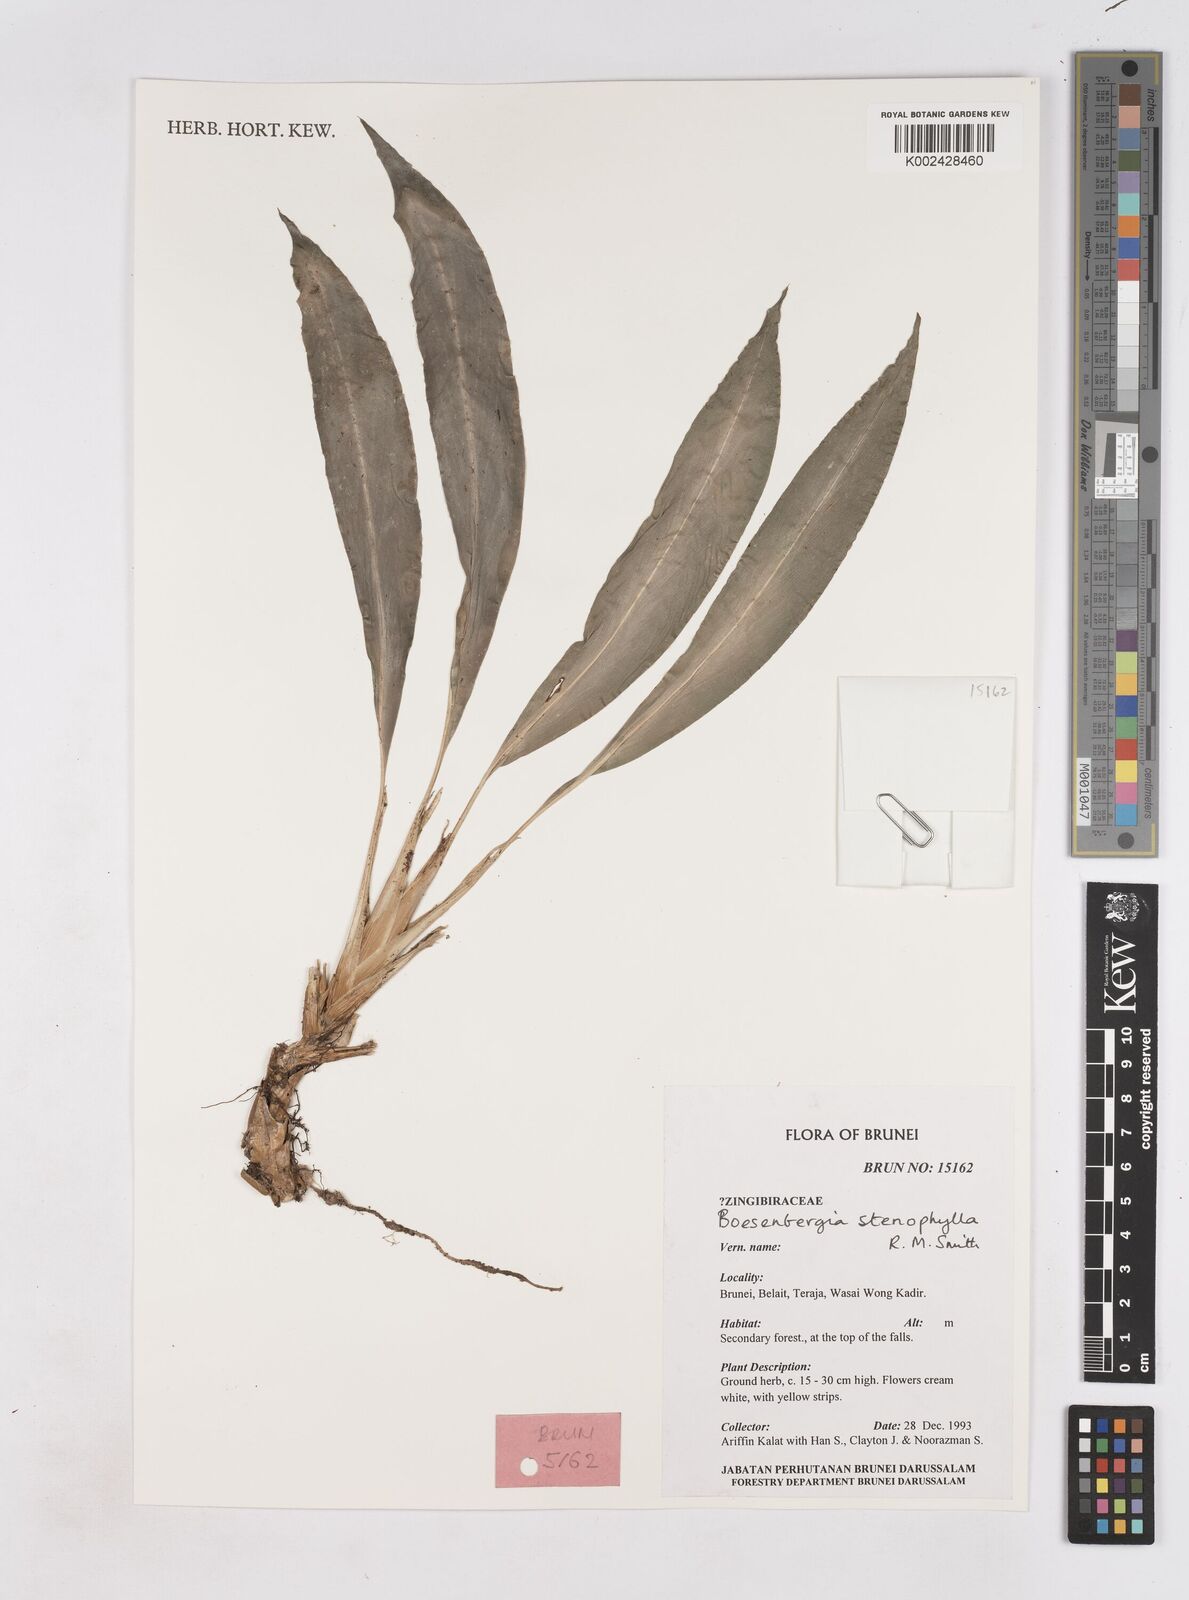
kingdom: Plantae
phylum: Tracheophyta
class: Liliopsida
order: Zingiberales
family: Zingiberaceae
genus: Boesenbergia
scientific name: Boesenbergia stenophylla
